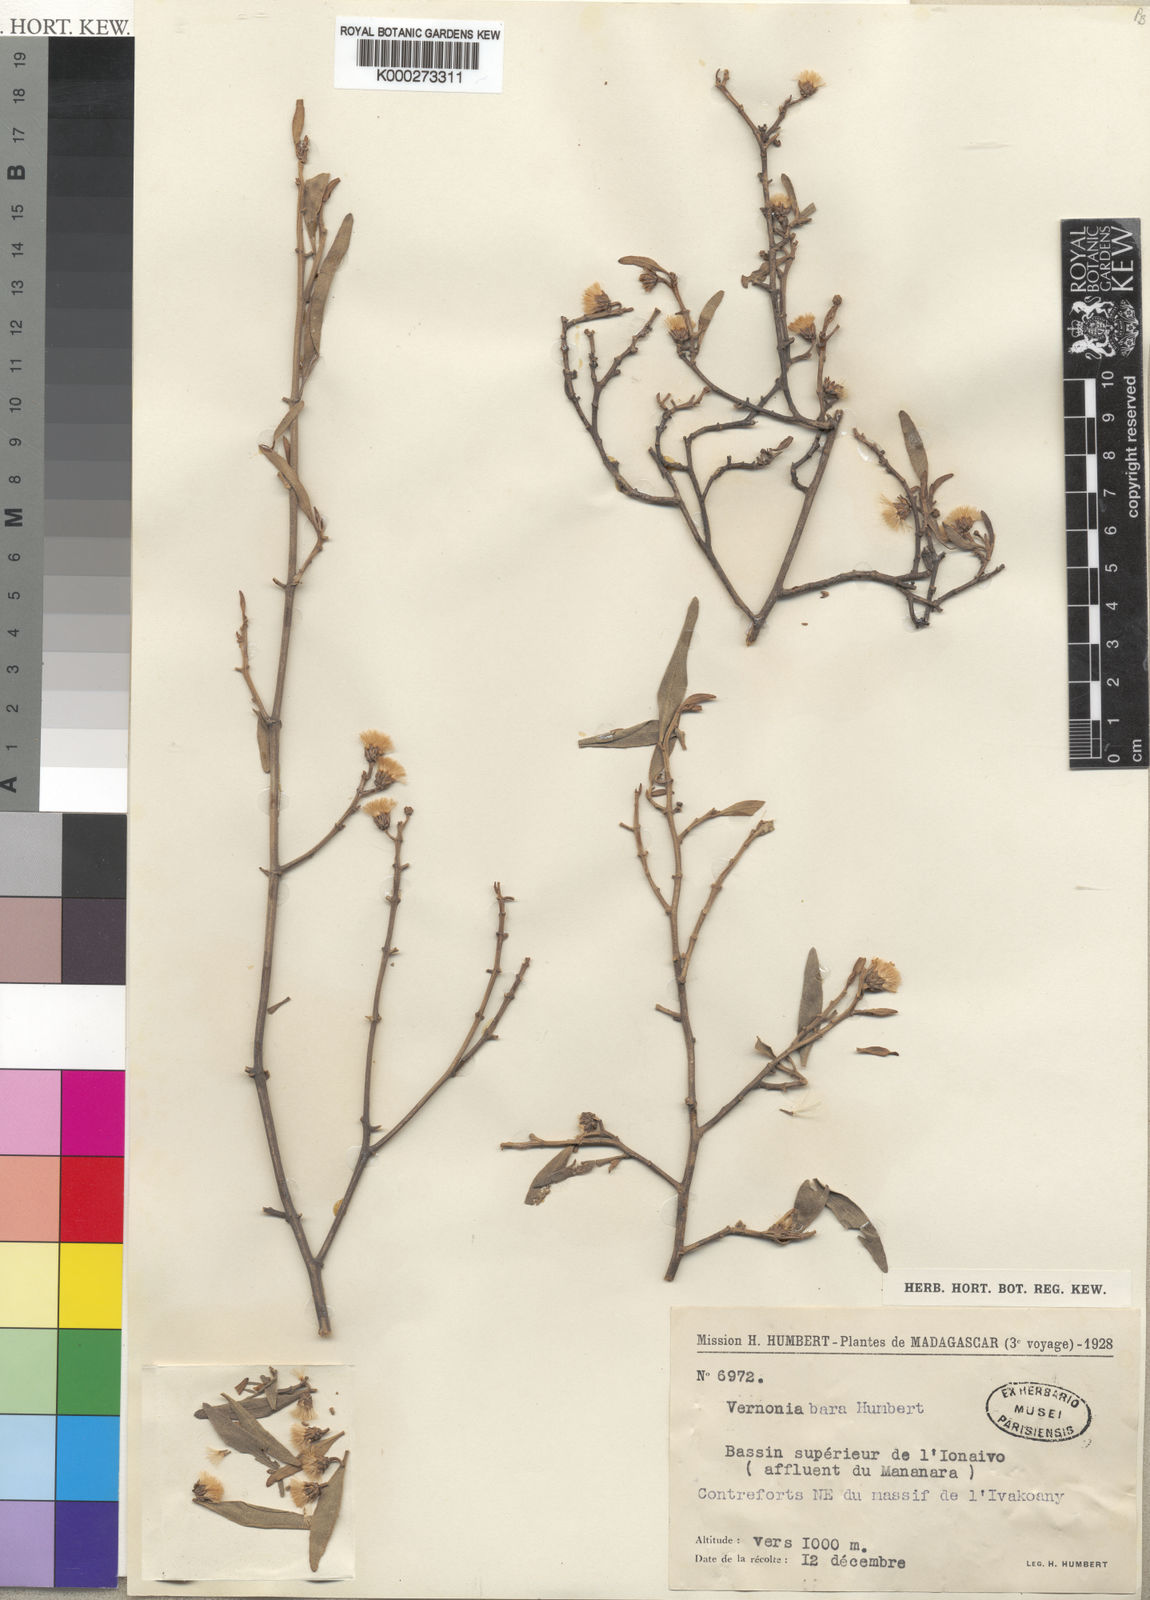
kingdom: Plantae
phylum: Tracheophyta
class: Magnoliopsida
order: Asterales
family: Asteraceae
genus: Distephanus
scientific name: Distephanus bara
